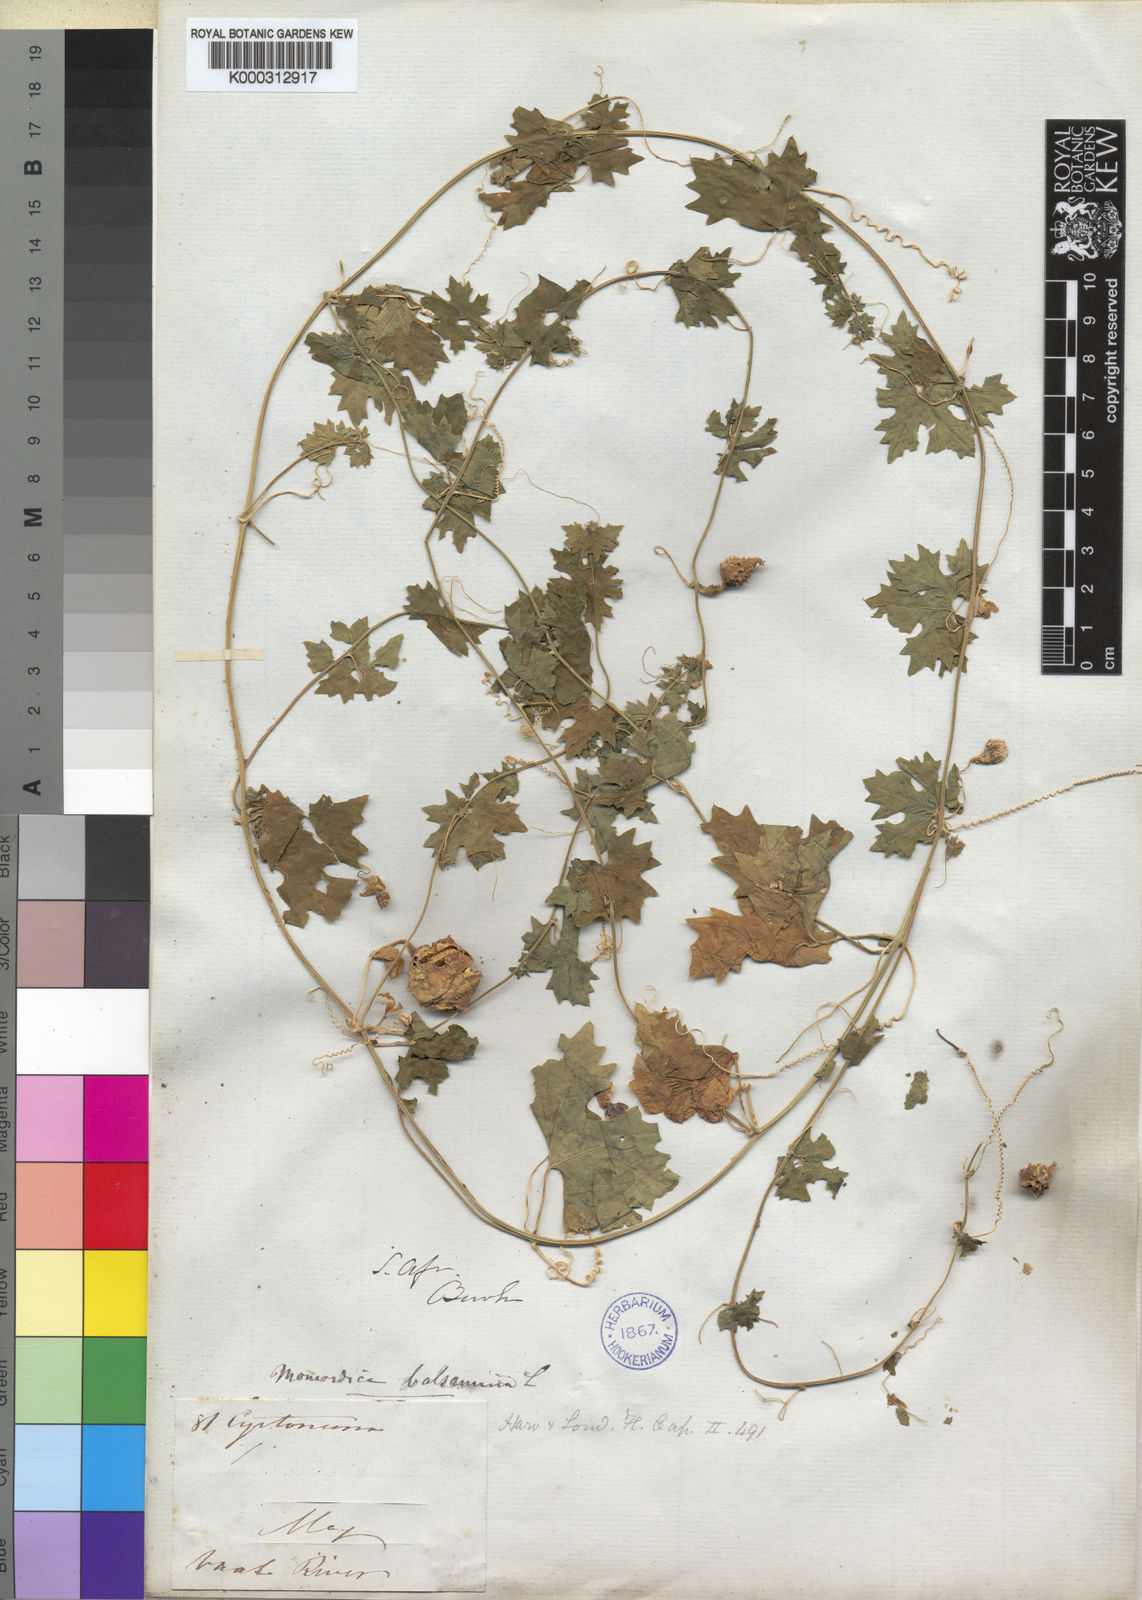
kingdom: Plantae
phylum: Tracheophyta
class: Magnoliopsida
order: Cucurbitales
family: Cucurbitaceae
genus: Momordica
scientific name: Momordica balsamina
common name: Southern balsampear
